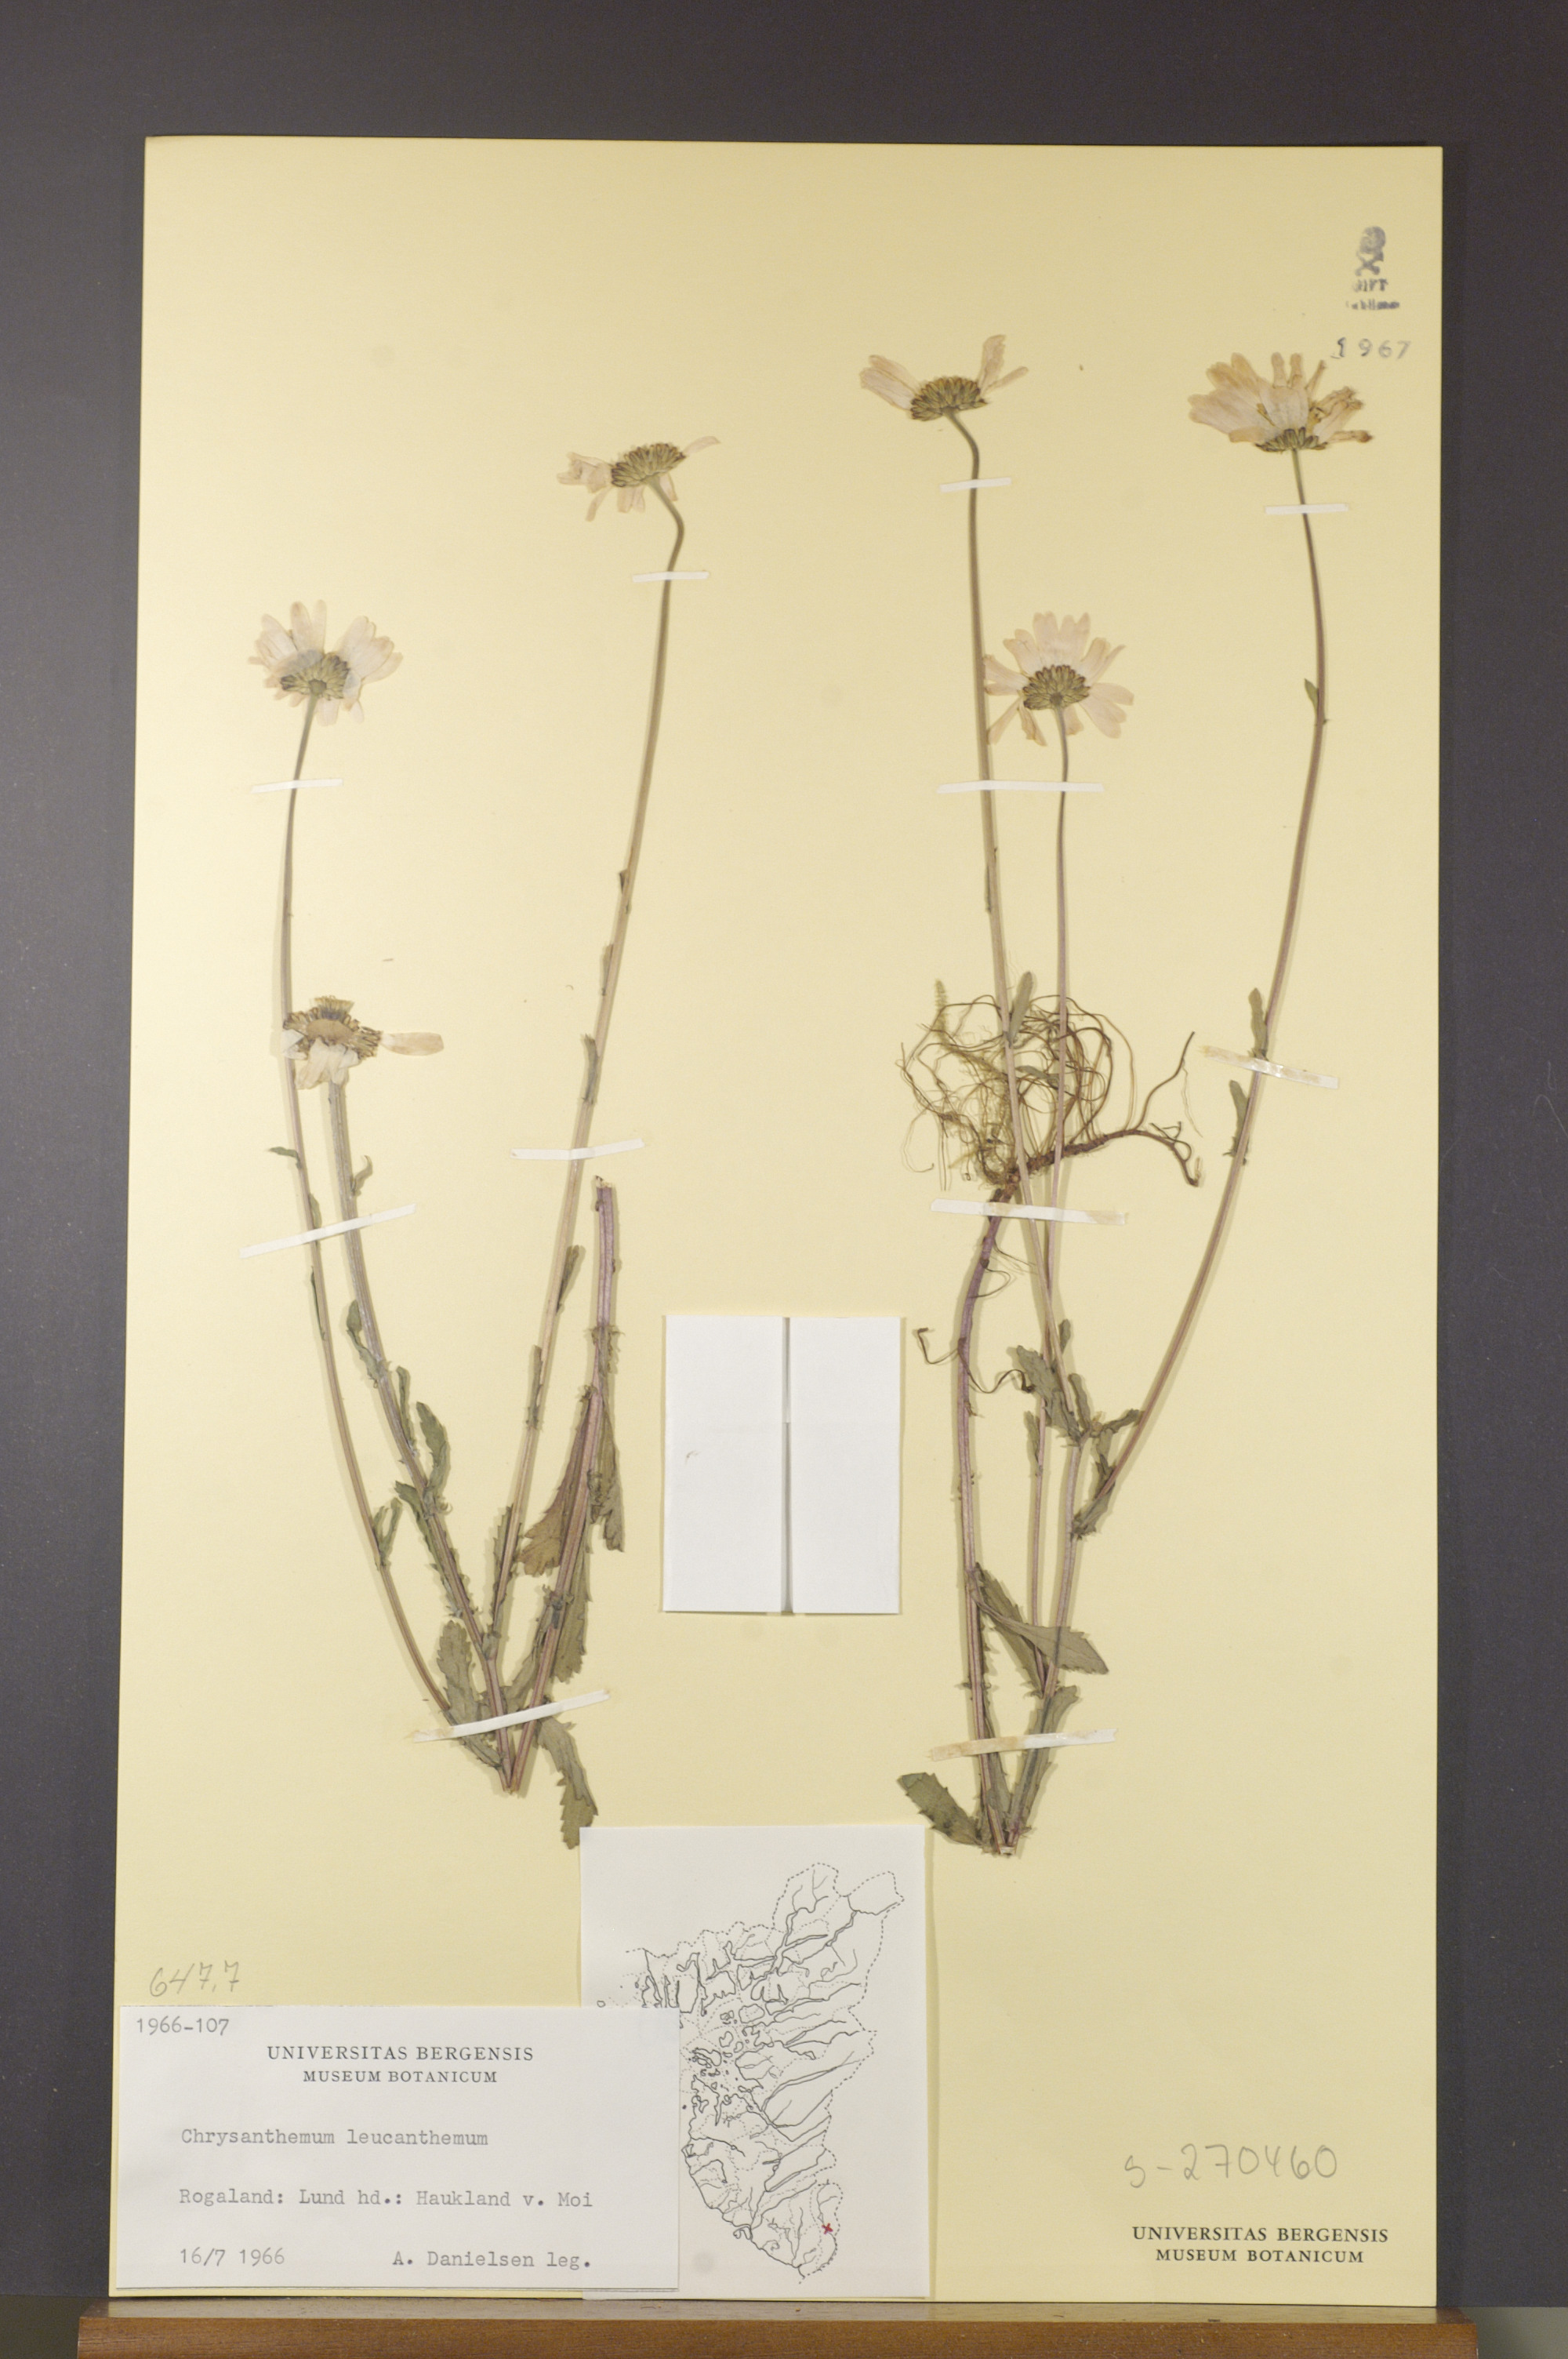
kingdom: Plantae
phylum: Tracheophyta
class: Magnoliopsida
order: Asterales
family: Asteraceae
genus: Leucanthemum
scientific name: Leucanthemum vulgare
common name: Oxeye daisy
